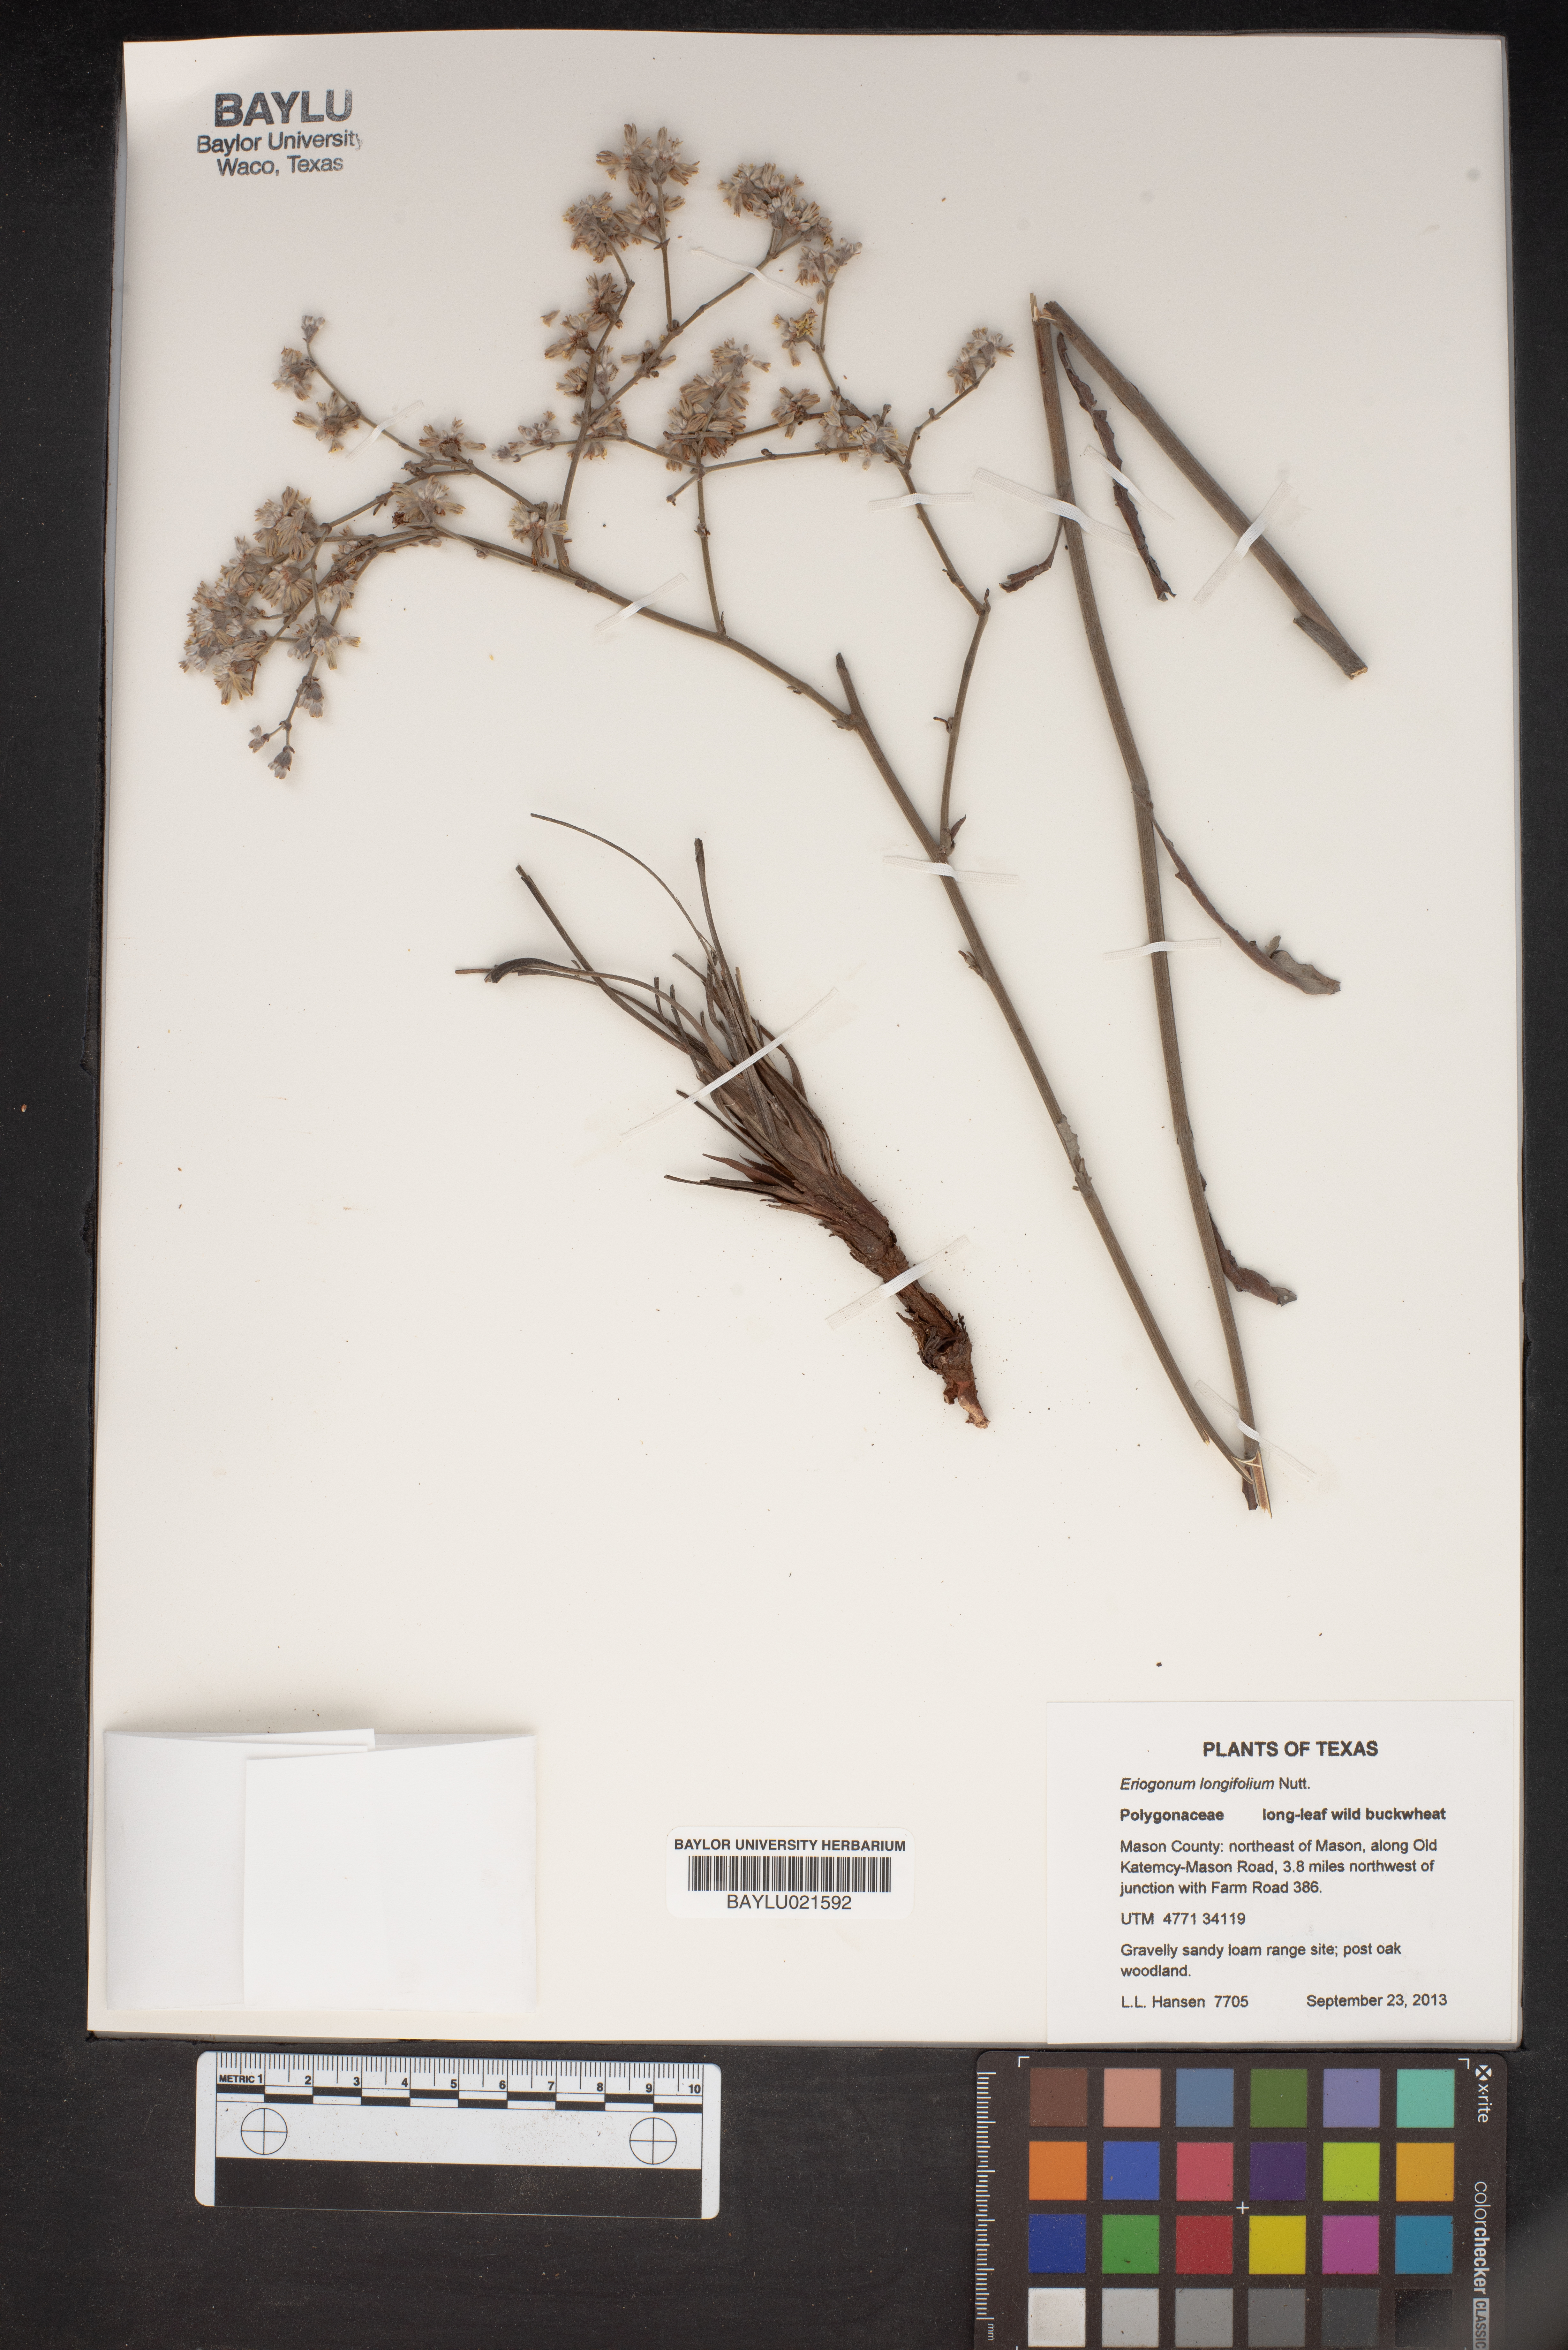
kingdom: Plantae
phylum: Tracheophyta
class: Magnoliopsida
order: Caryophyllales
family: Polygonaceae
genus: Eriogonum
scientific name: Eriogonum longifolium
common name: Longleaf wild buckwheat
